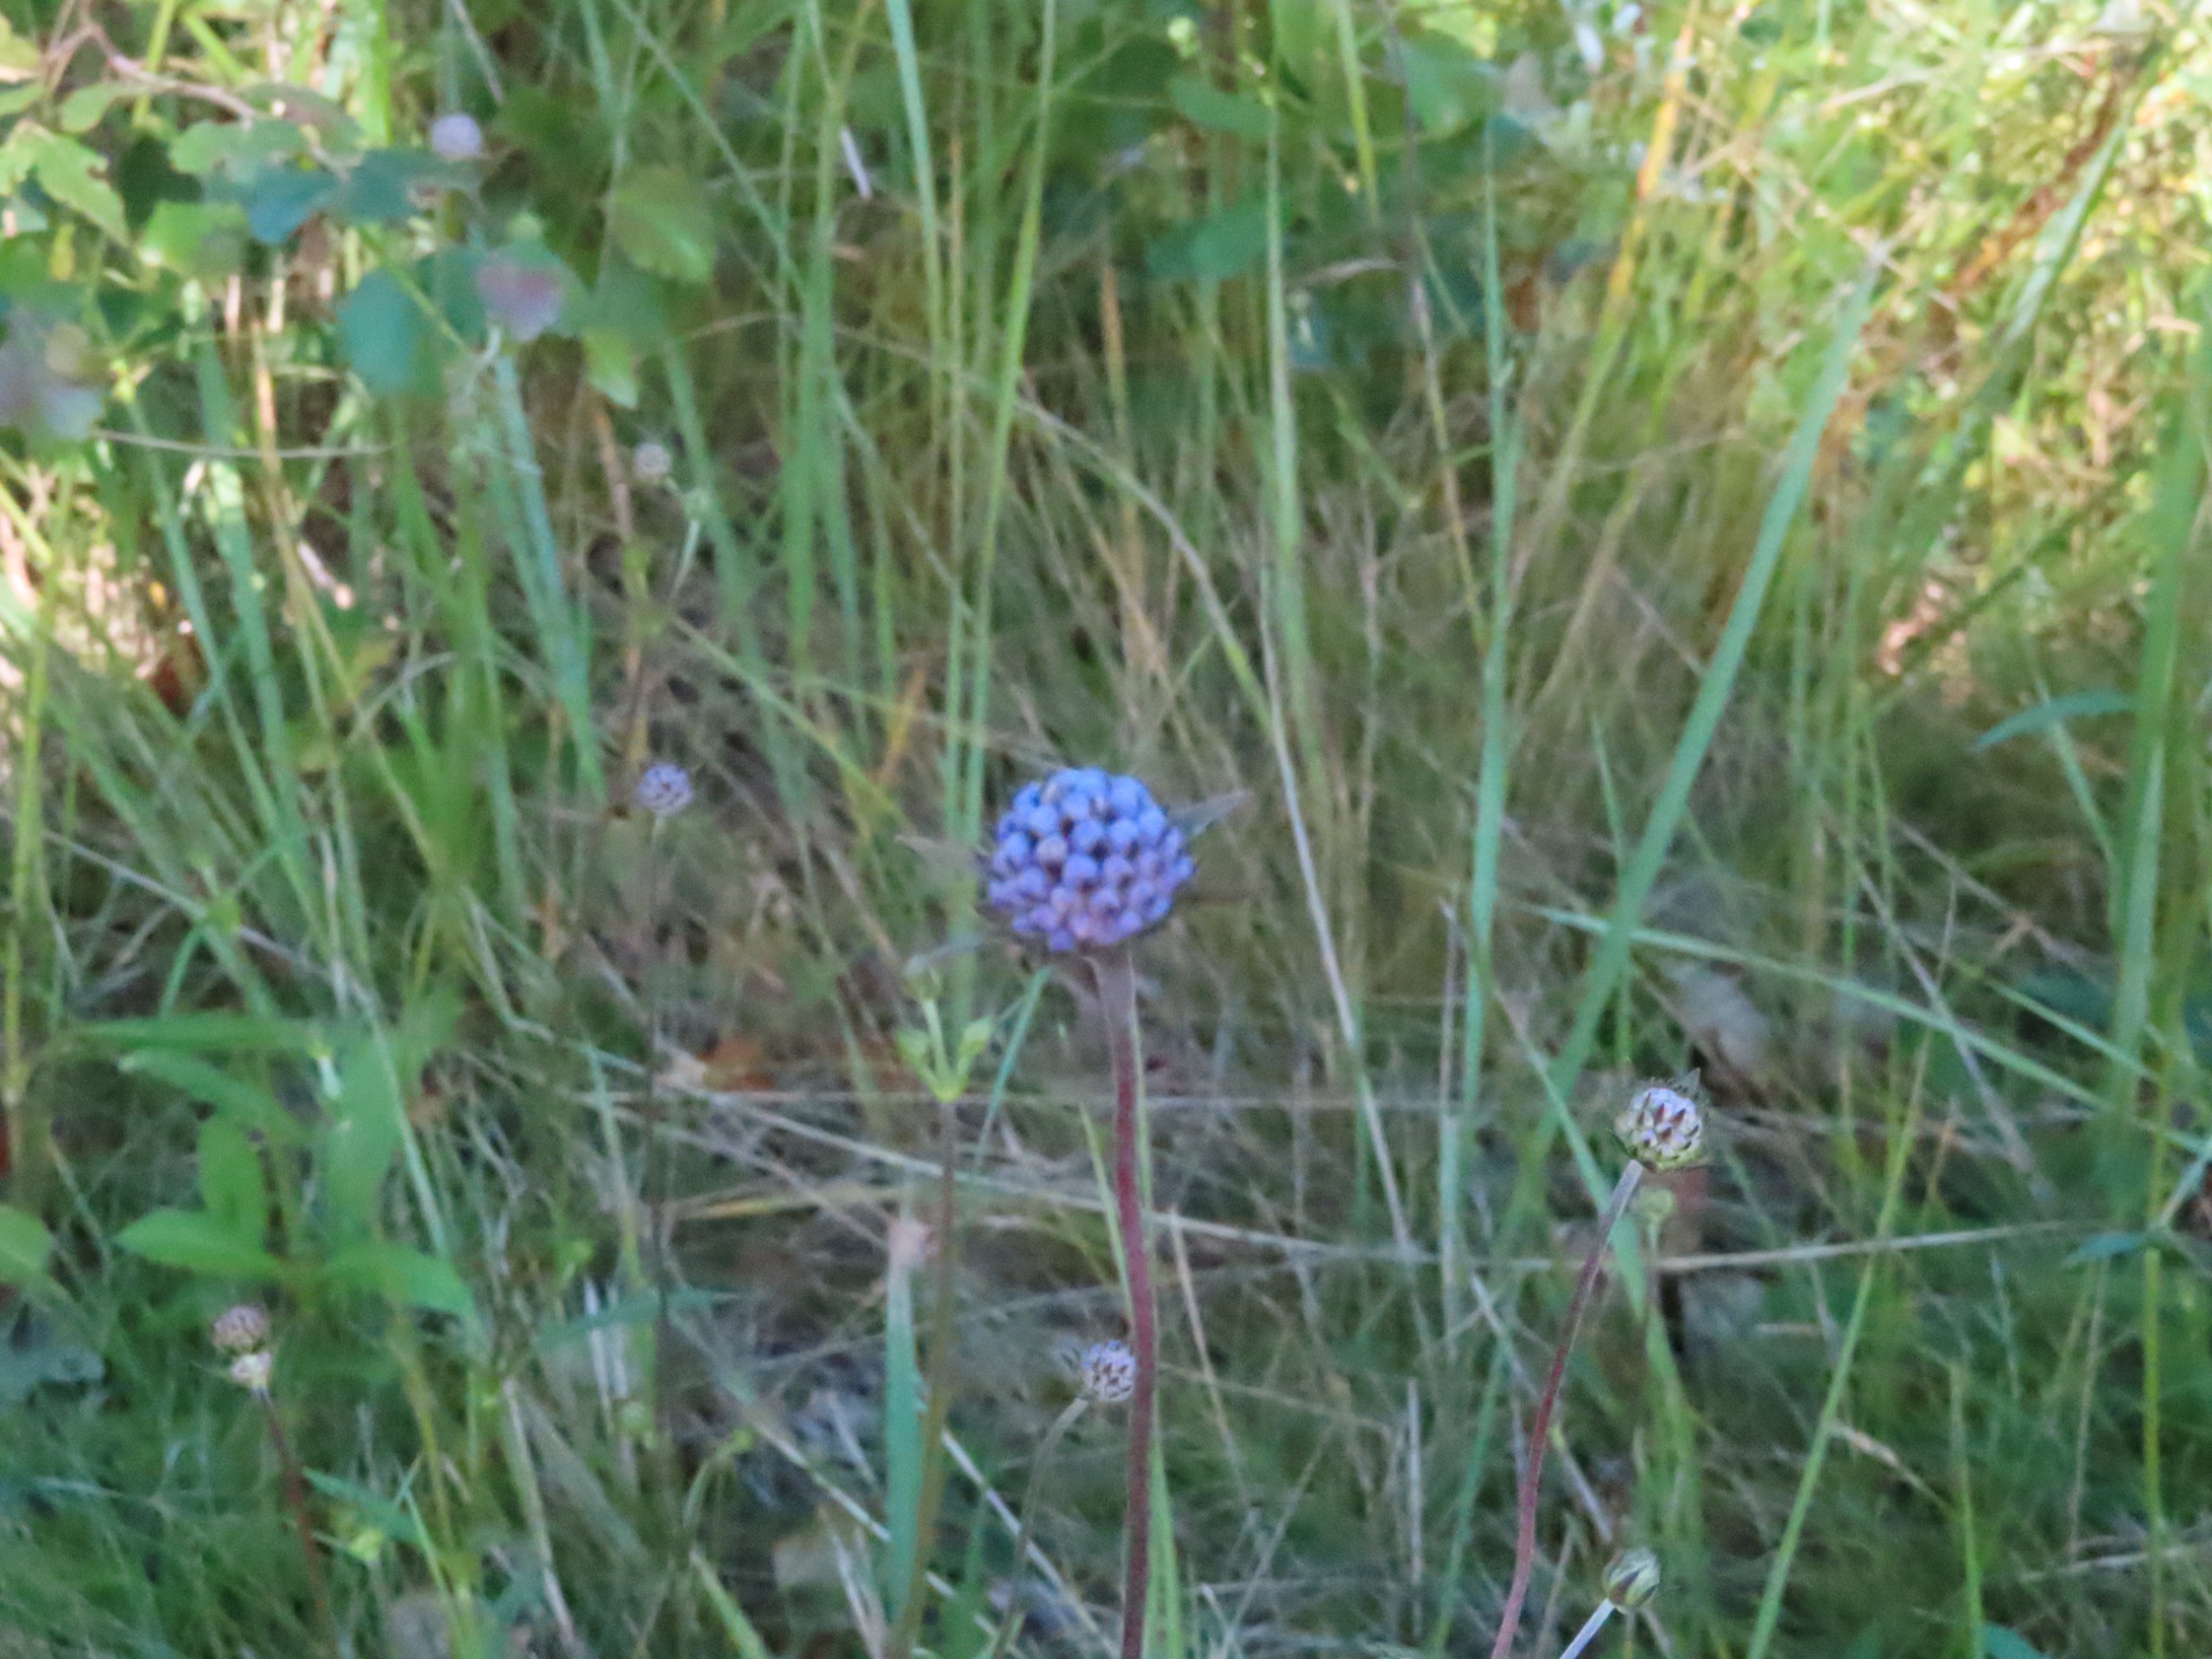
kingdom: Plantae
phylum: Tracheophyta
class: Magnoliopsida
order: Dipsacales
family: Caprifoliaceae
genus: Succisa
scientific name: Succisa pratensis
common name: Djævelsbid
